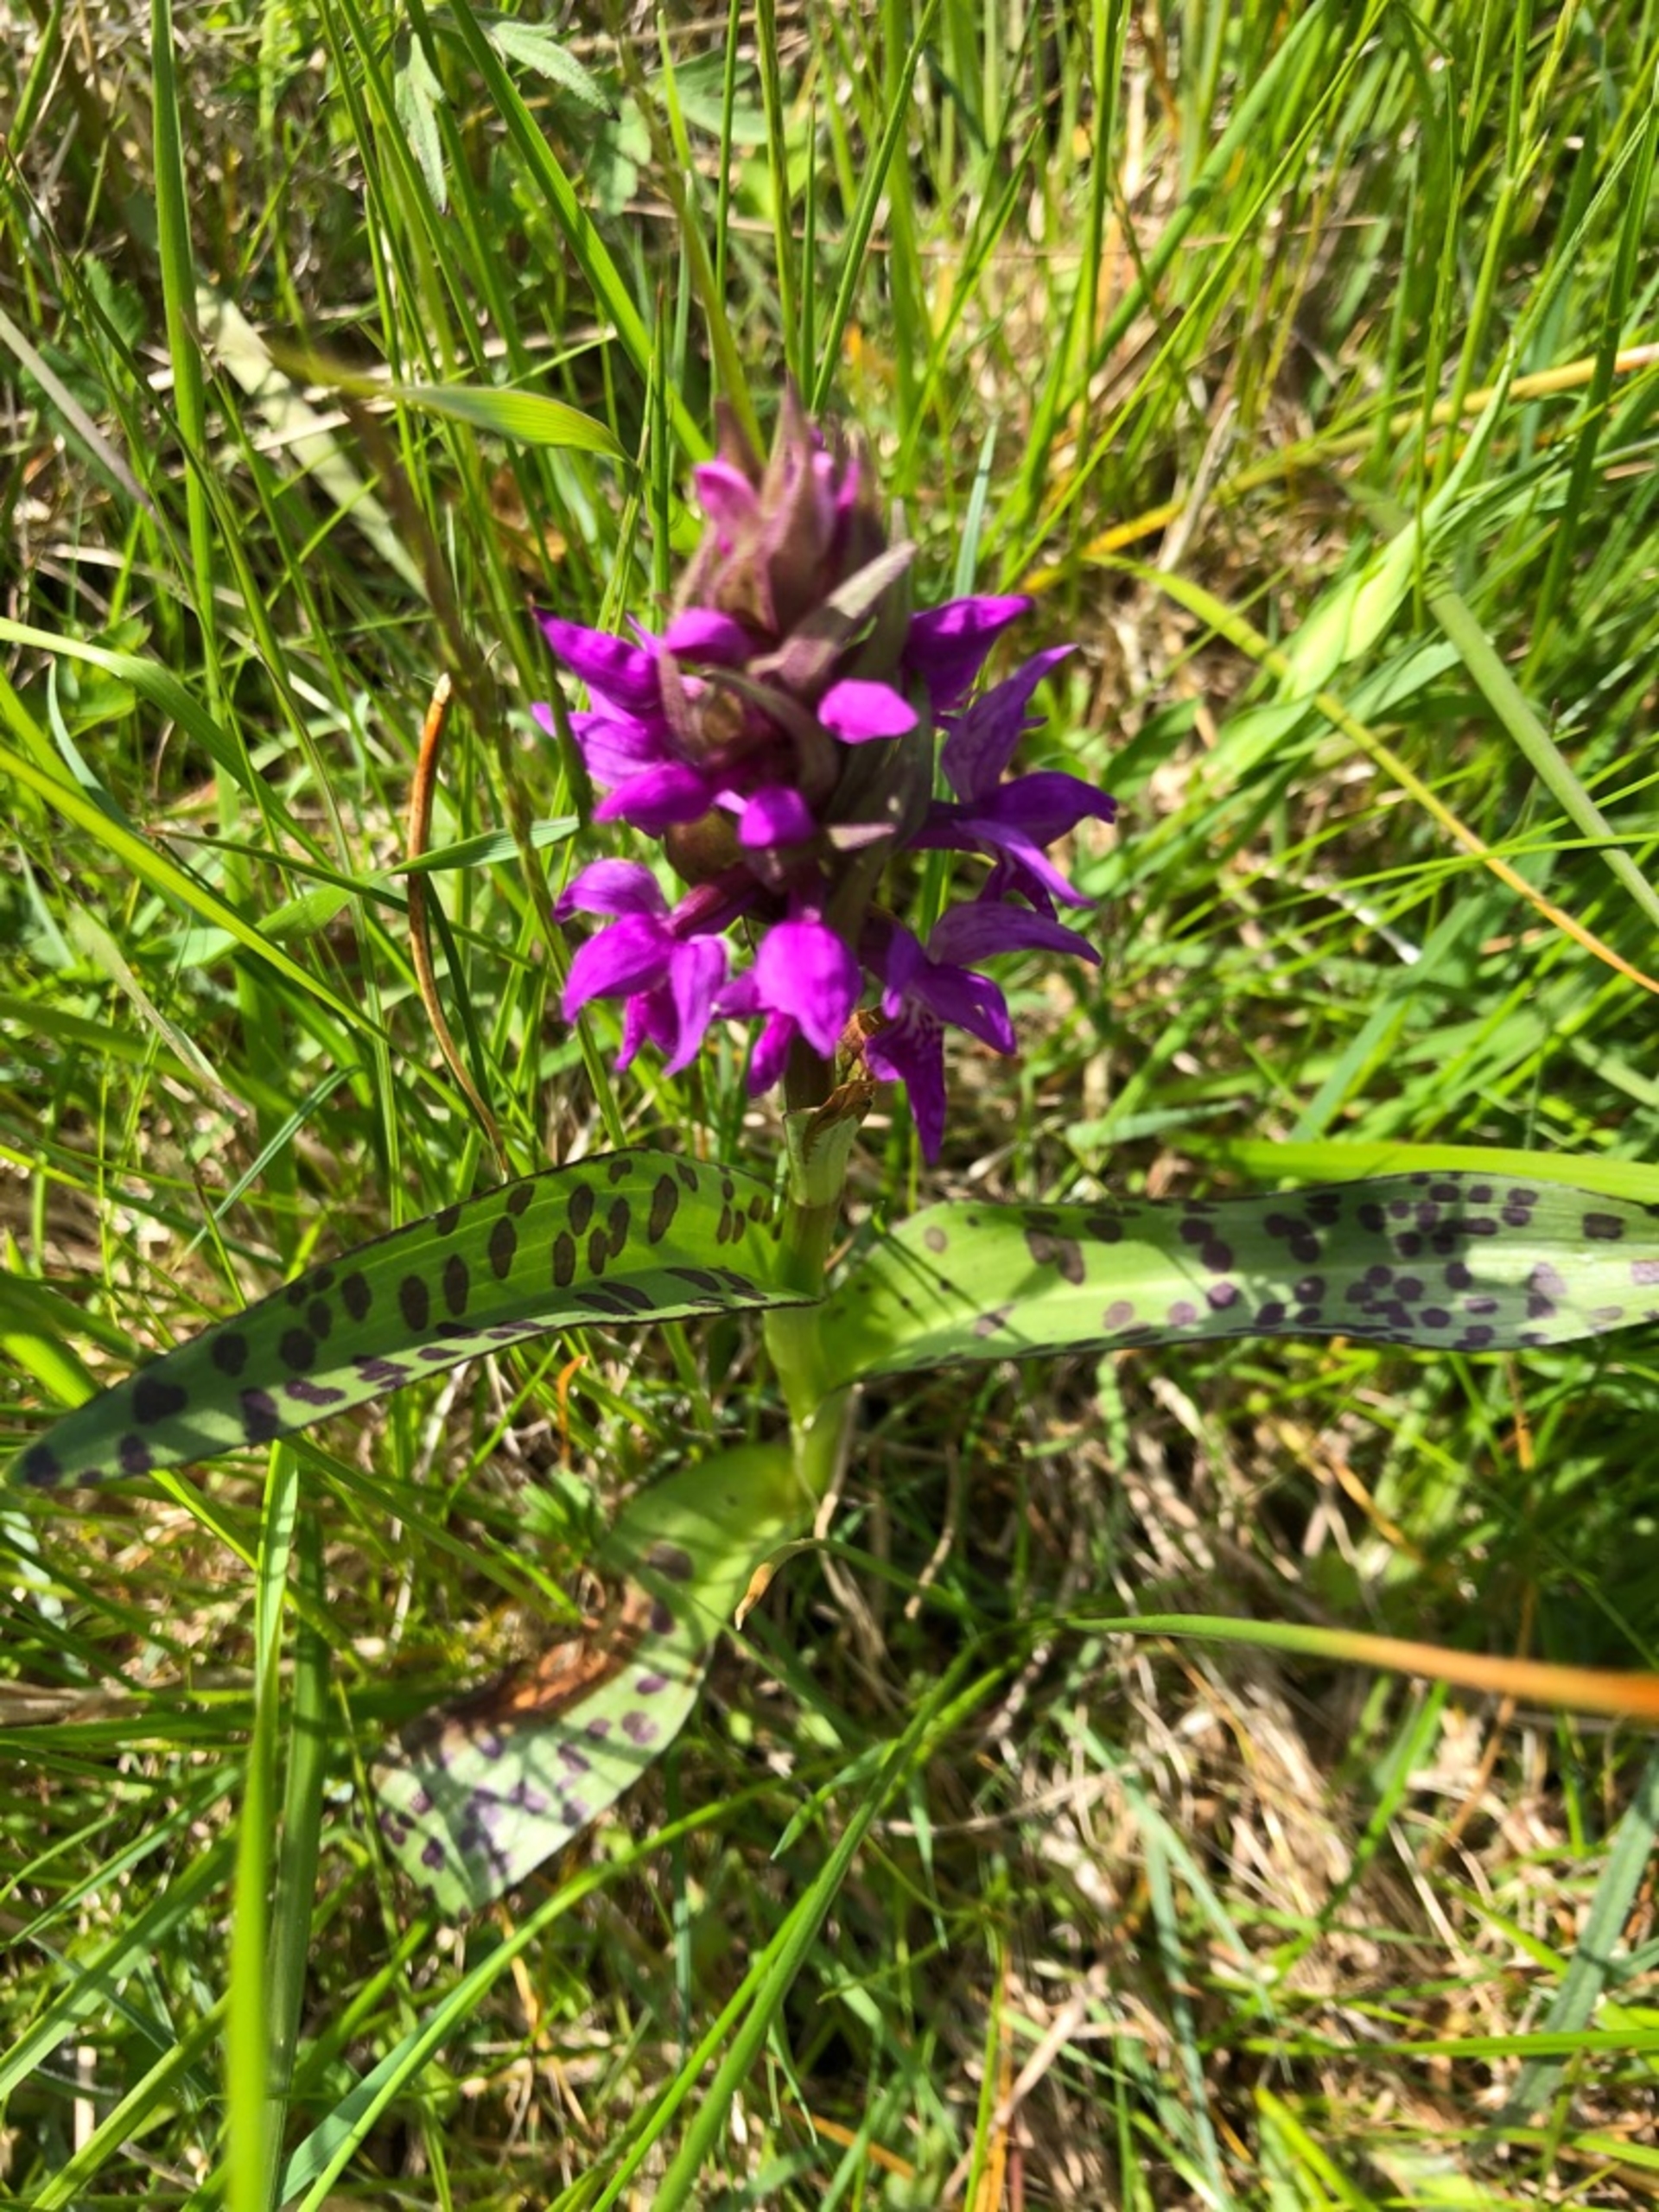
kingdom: Plantae
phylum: Tracheophyta
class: Liliopsida
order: Asparagales
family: Orchidaceae
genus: Dactylorhiza
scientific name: Dactylorhiza majalis
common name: Maj-gøgeurt
